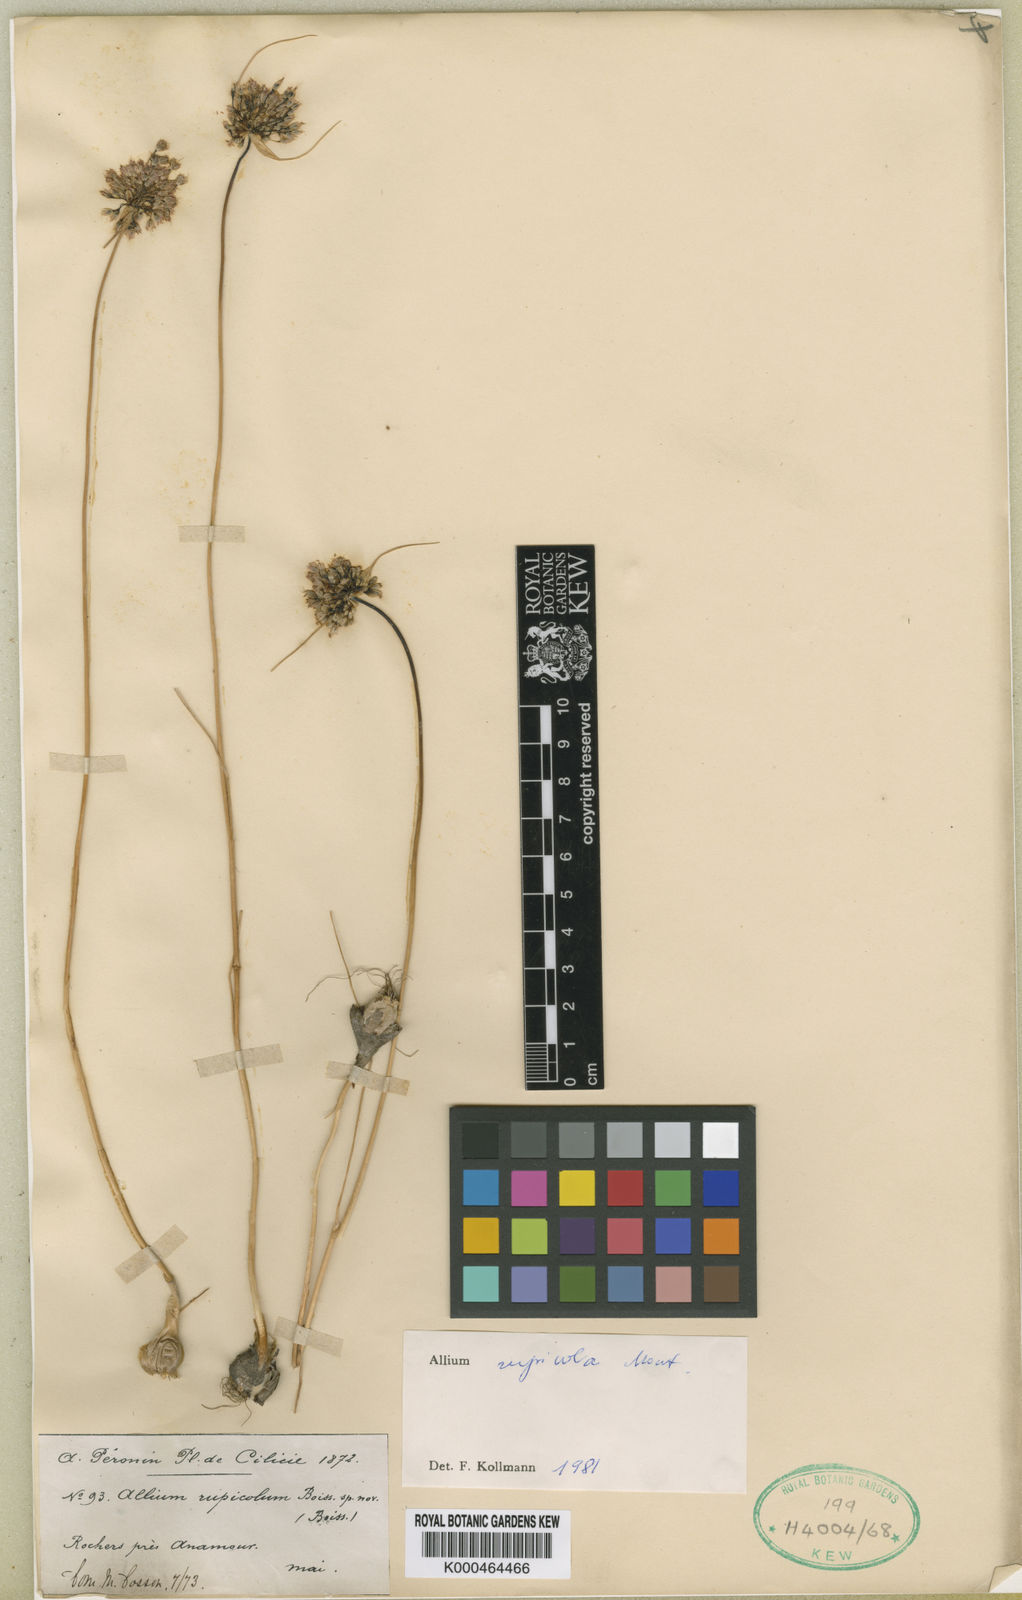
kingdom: Plantae
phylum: Tracheophyta
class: Liliopsida
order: Asparagales
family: Amaryllidaceae
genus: Allium
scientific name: Allium
